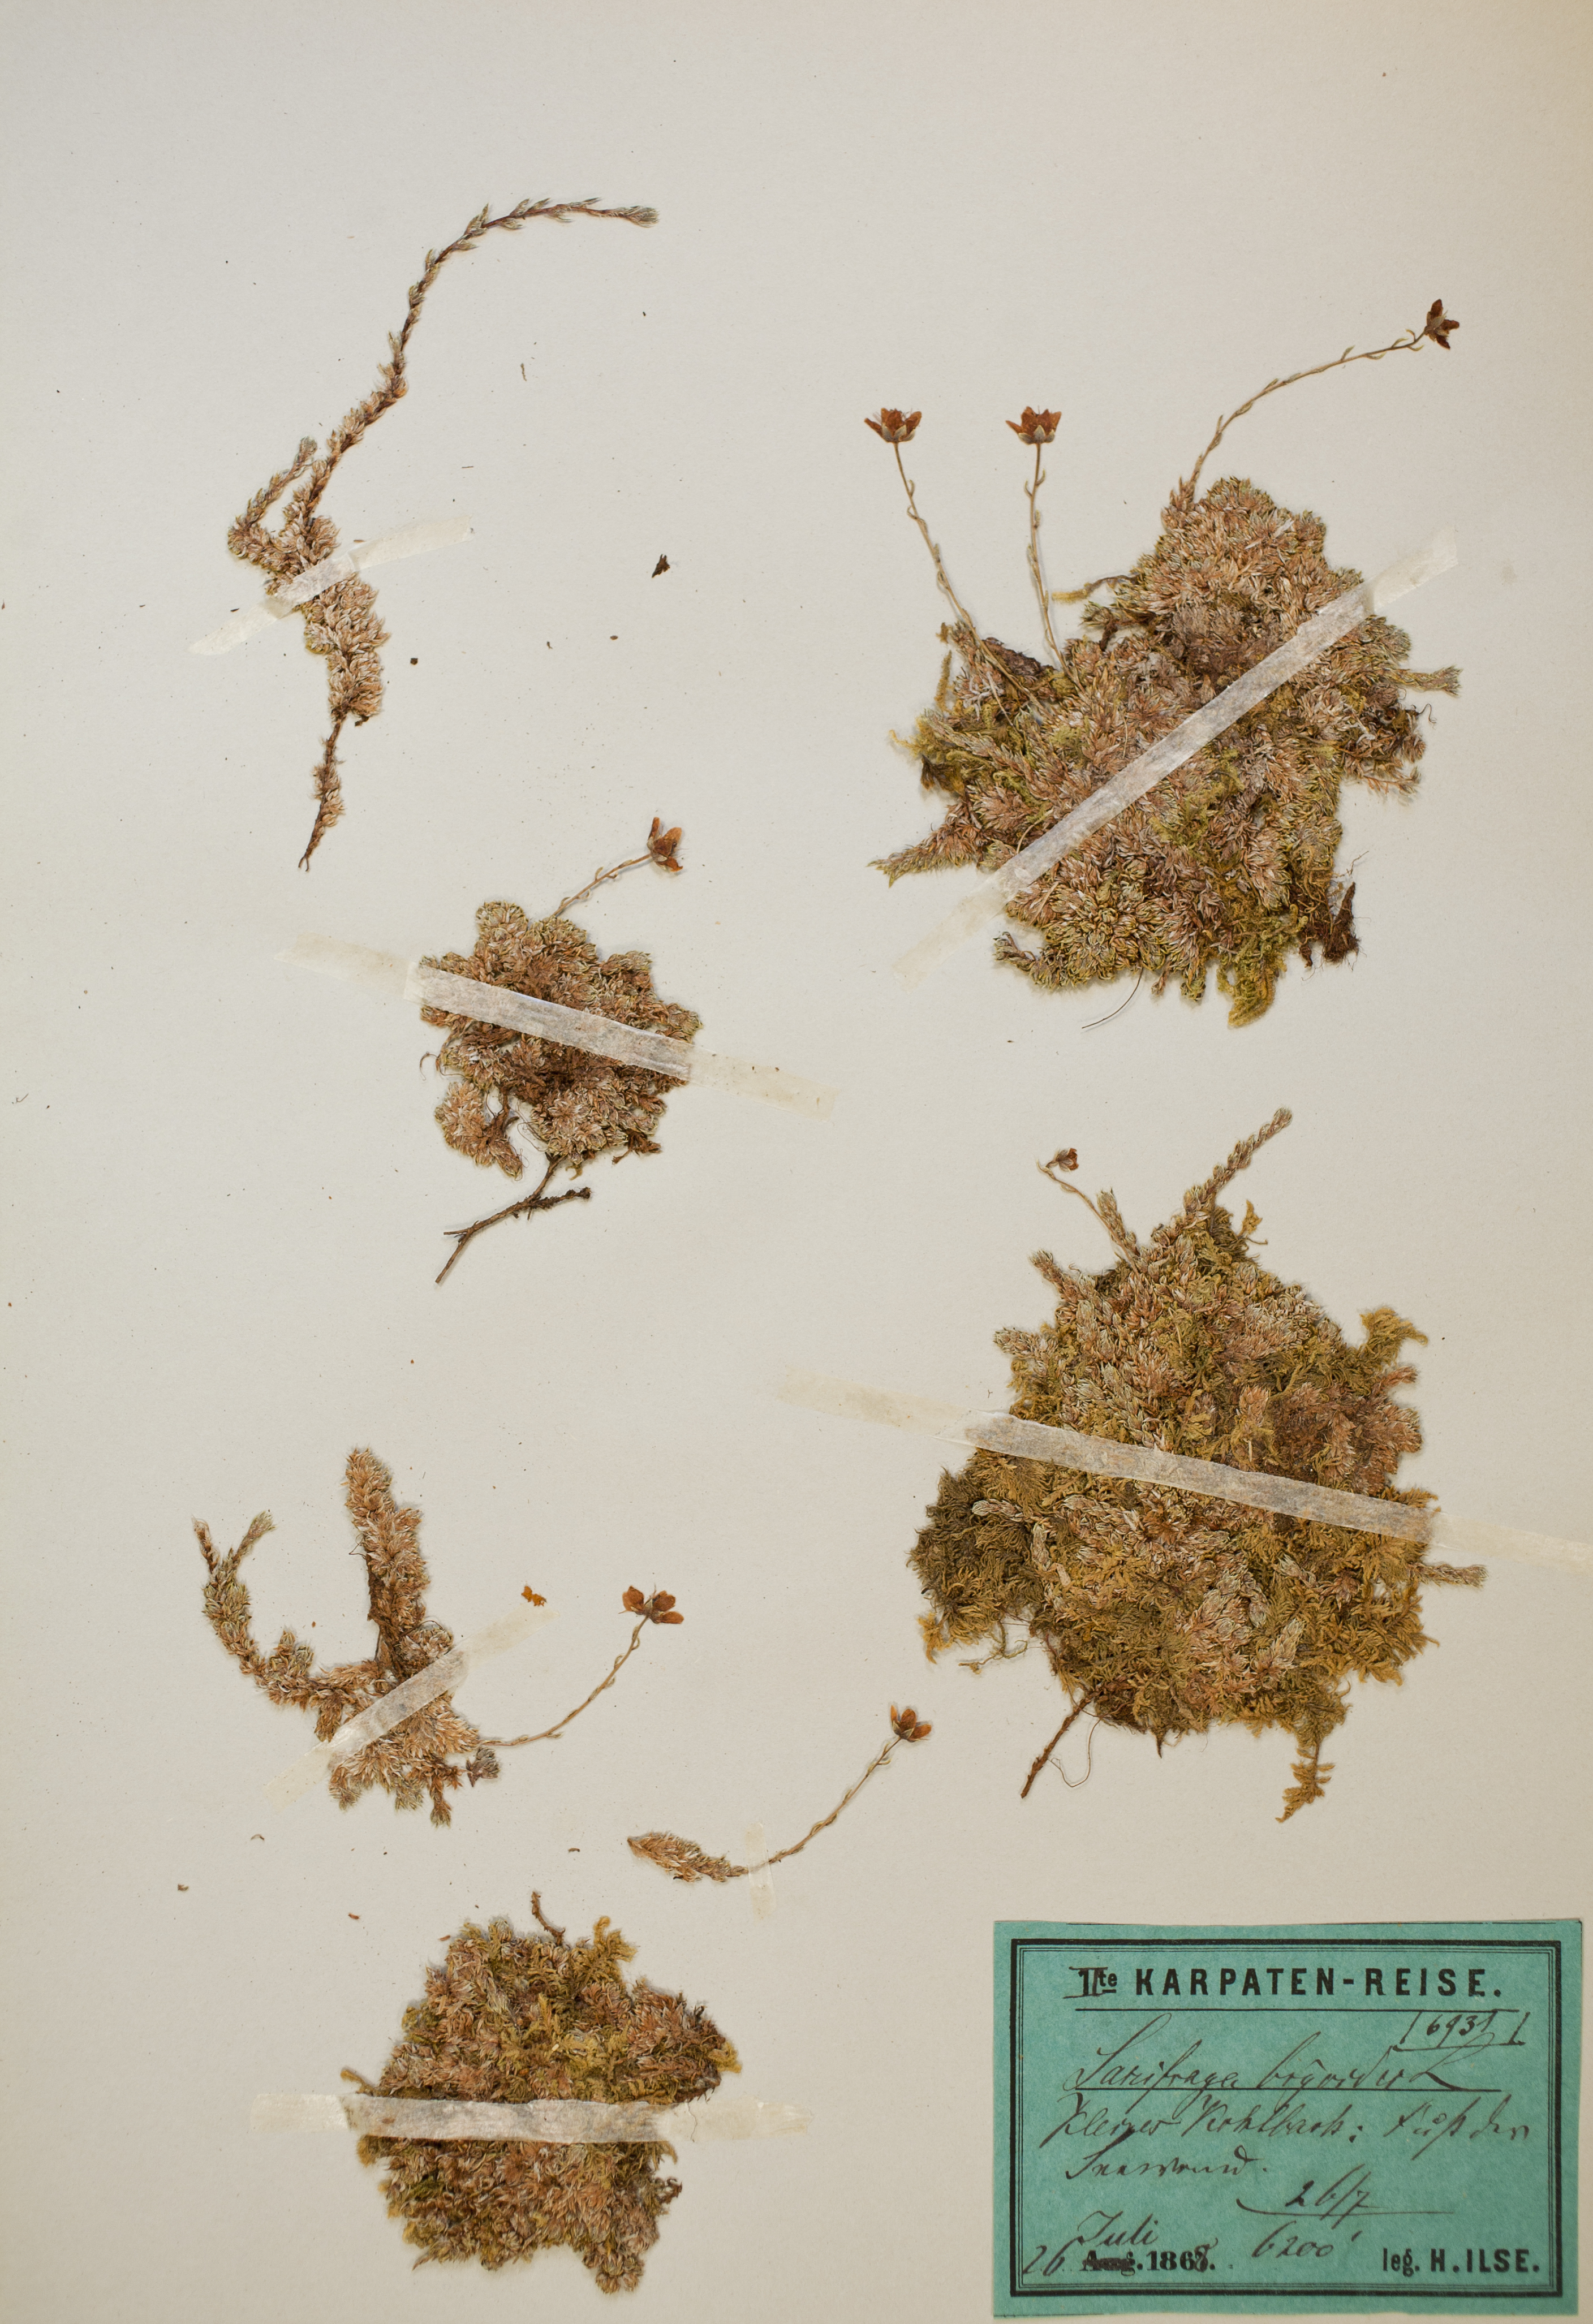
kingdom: Plantae
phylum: Tracheophyta
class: Magnoliopsida
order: Saxifragales
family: Saxifragaceae
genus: Saxifraga
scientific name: Saxifraga bryoides
